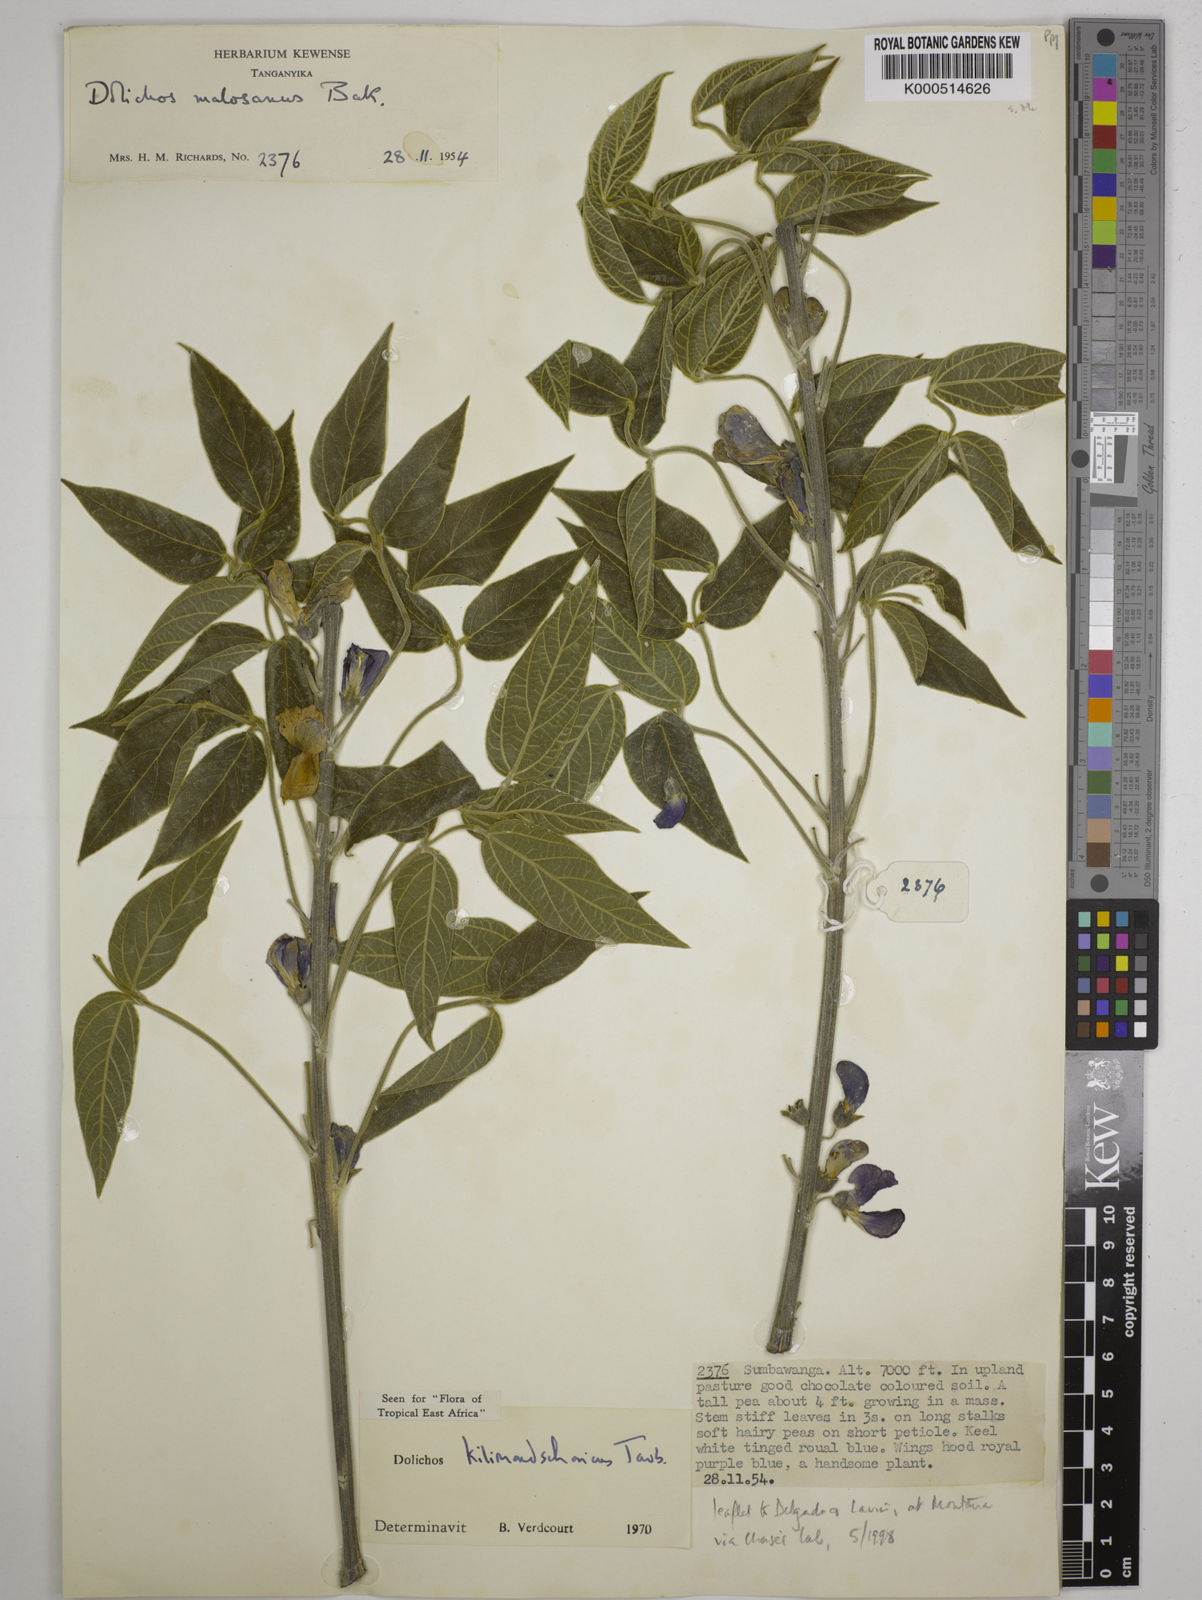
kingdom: Plantae
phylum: Tracheophyta
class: Magnoliopsida
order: Fabales
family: Fabaceae
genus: Dolichos
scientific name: Dolichos kilimandscharicus
